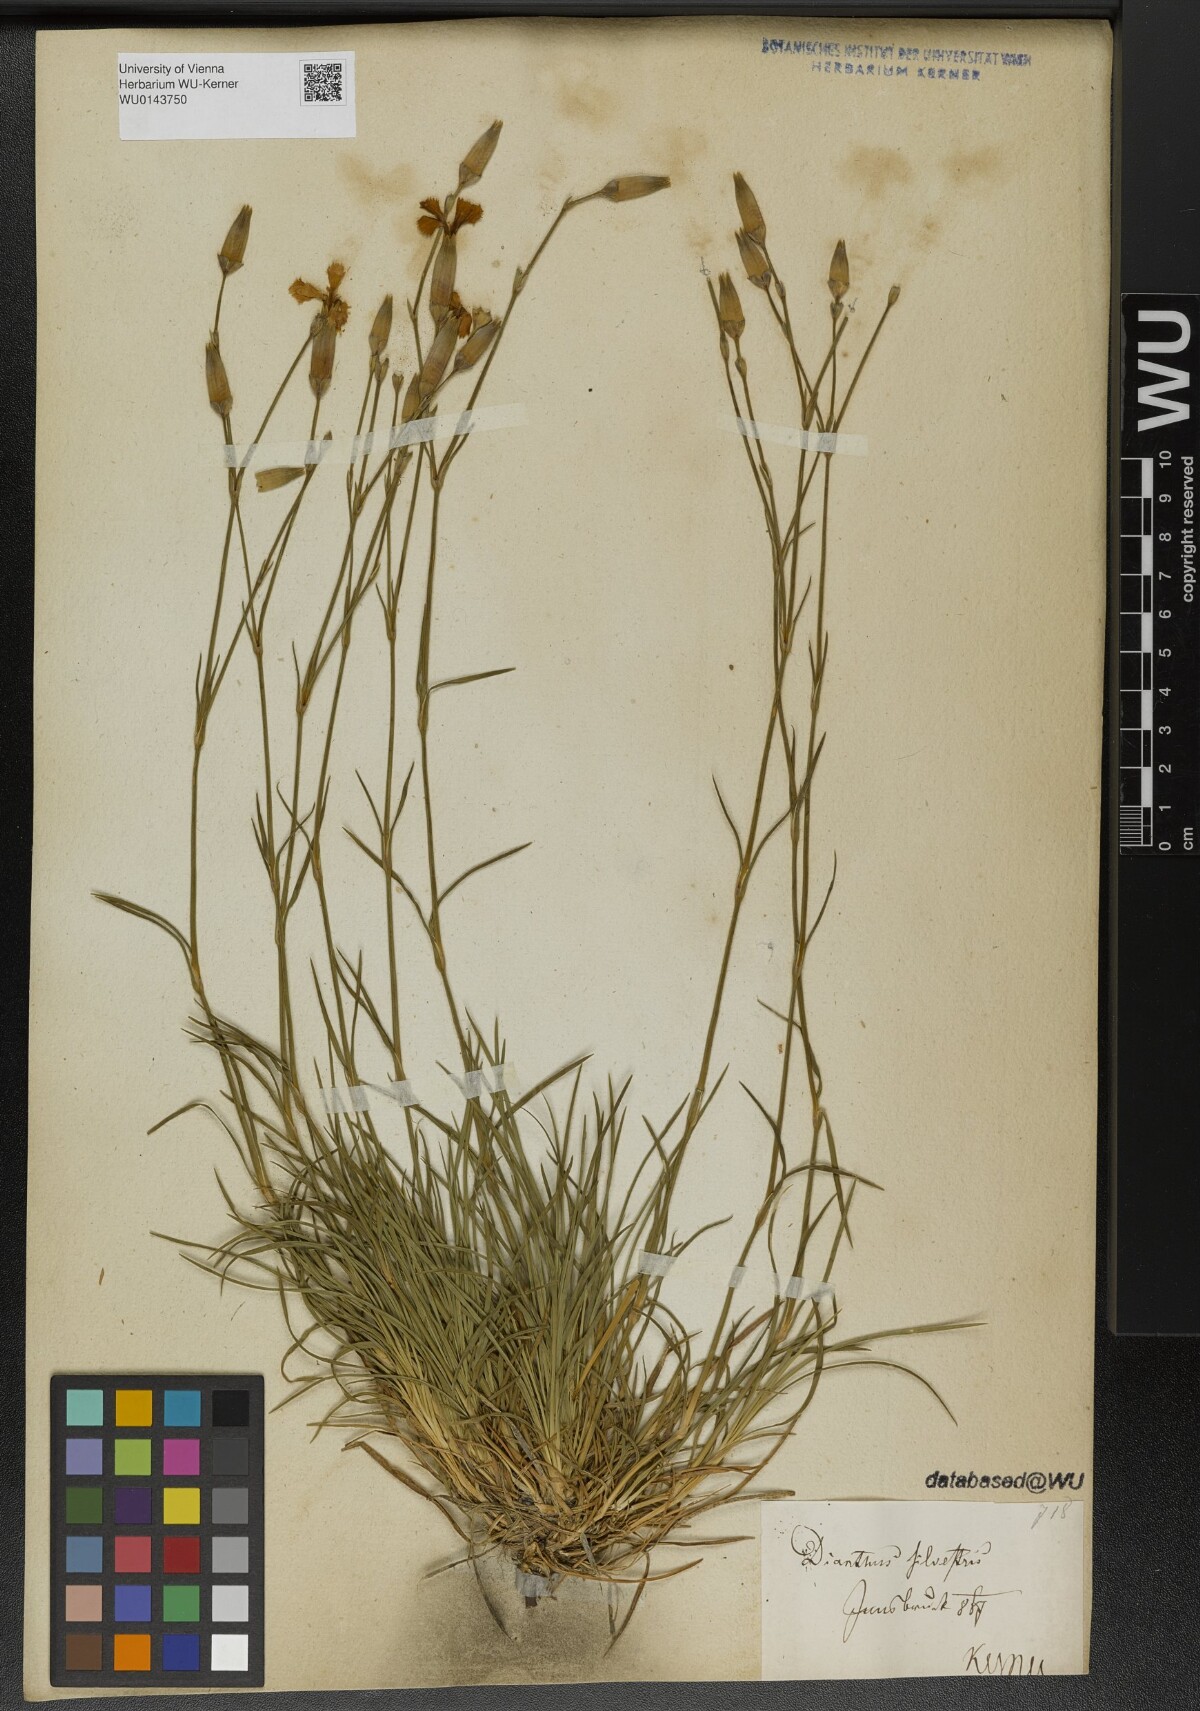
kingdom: Plantae
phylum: Tracheophyta
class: Magnoliopsida
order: Caryophyllales
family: Caryophyllaceae
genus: Dianthus
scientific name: Dianthus sylvestris
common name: Wood pink
